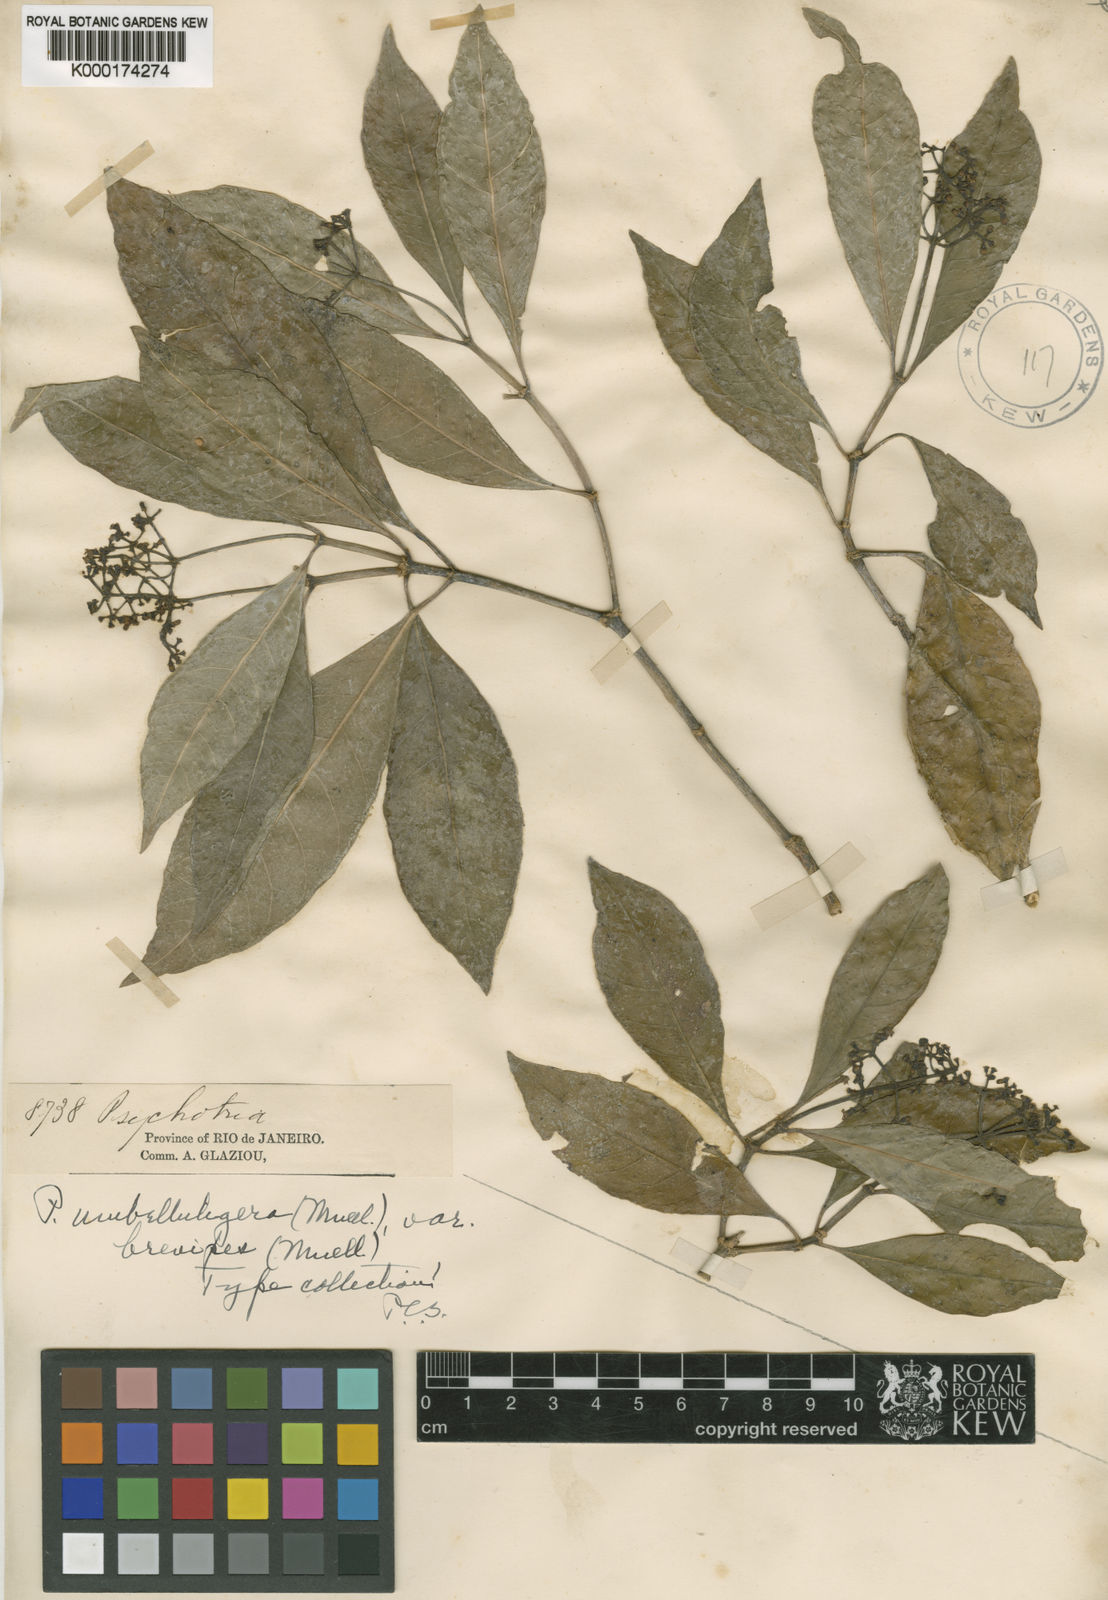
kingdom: Plantae
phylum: Tracheophyta
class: Magnoliopsida
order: Gentianales
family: Rubiaceae
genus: Psychotria
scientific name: Psychotria
